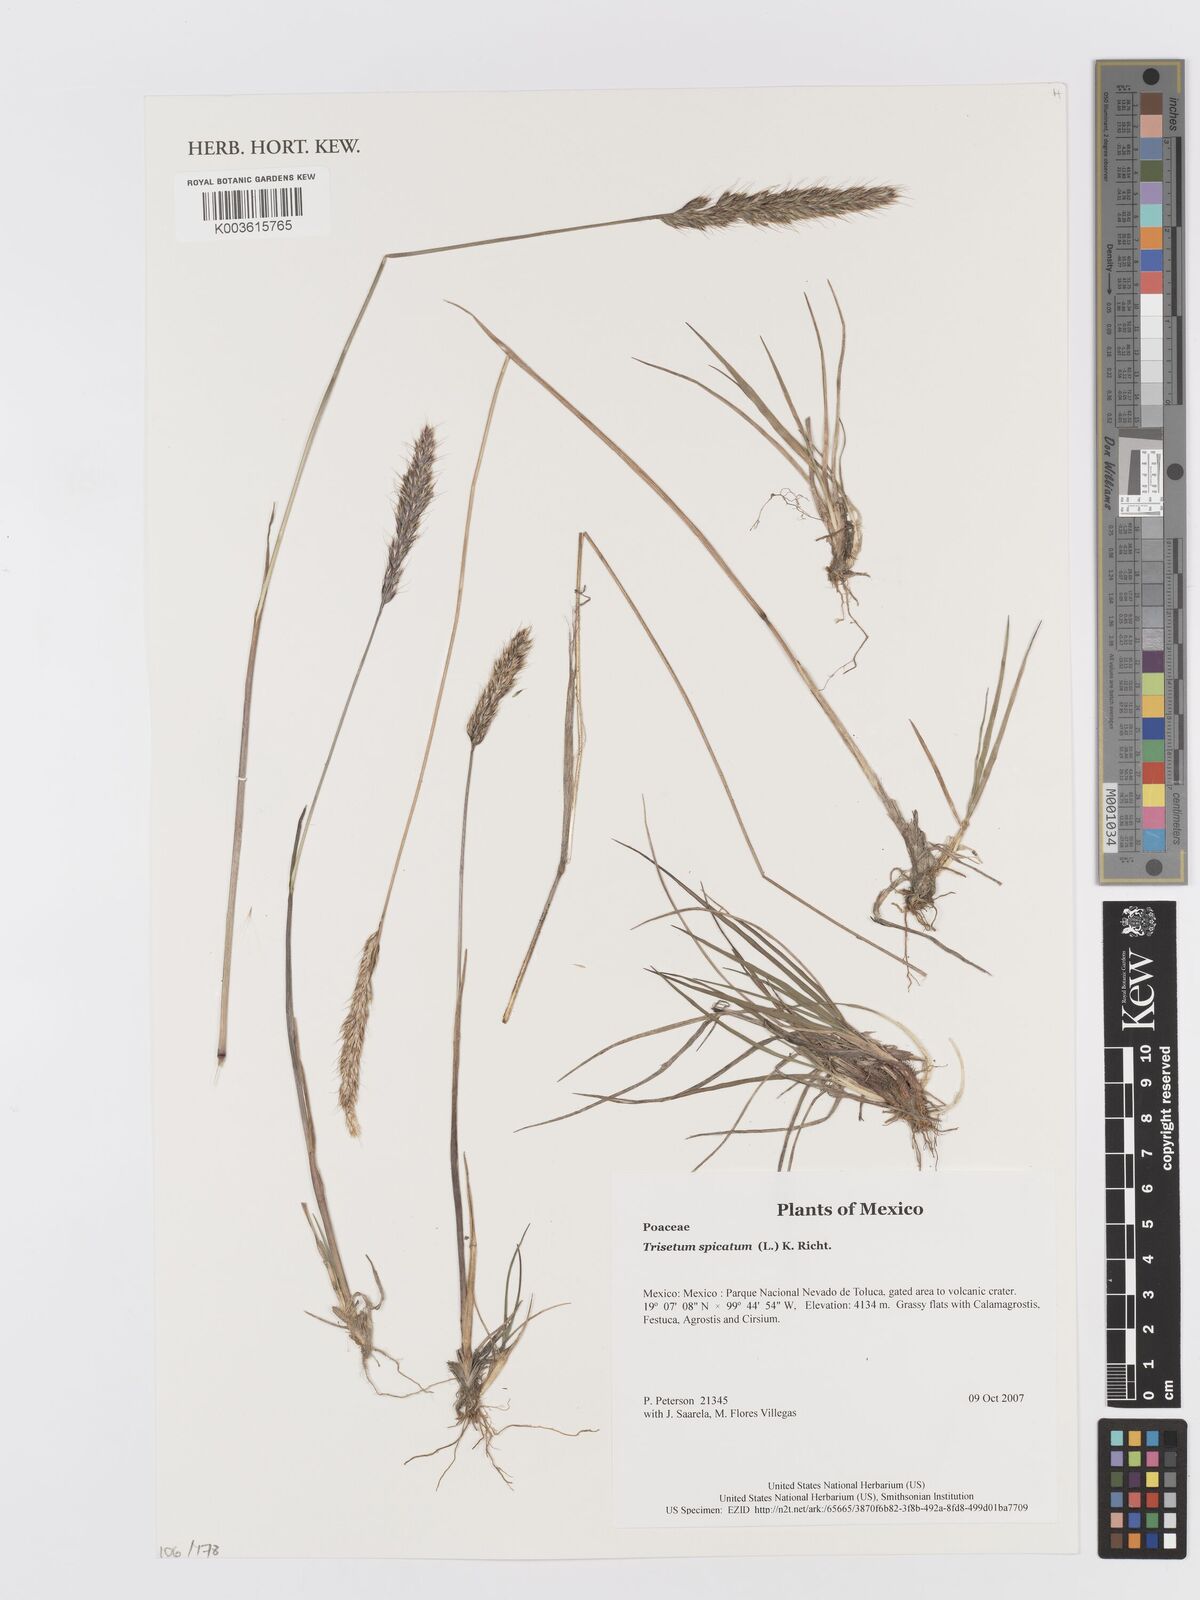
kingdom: Plantae
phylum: Tracheophyta
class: Liliopsida
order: Poales
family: Poaceae
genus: Koeleria
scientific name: Koeleria spicata
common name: Mountain trisetum
